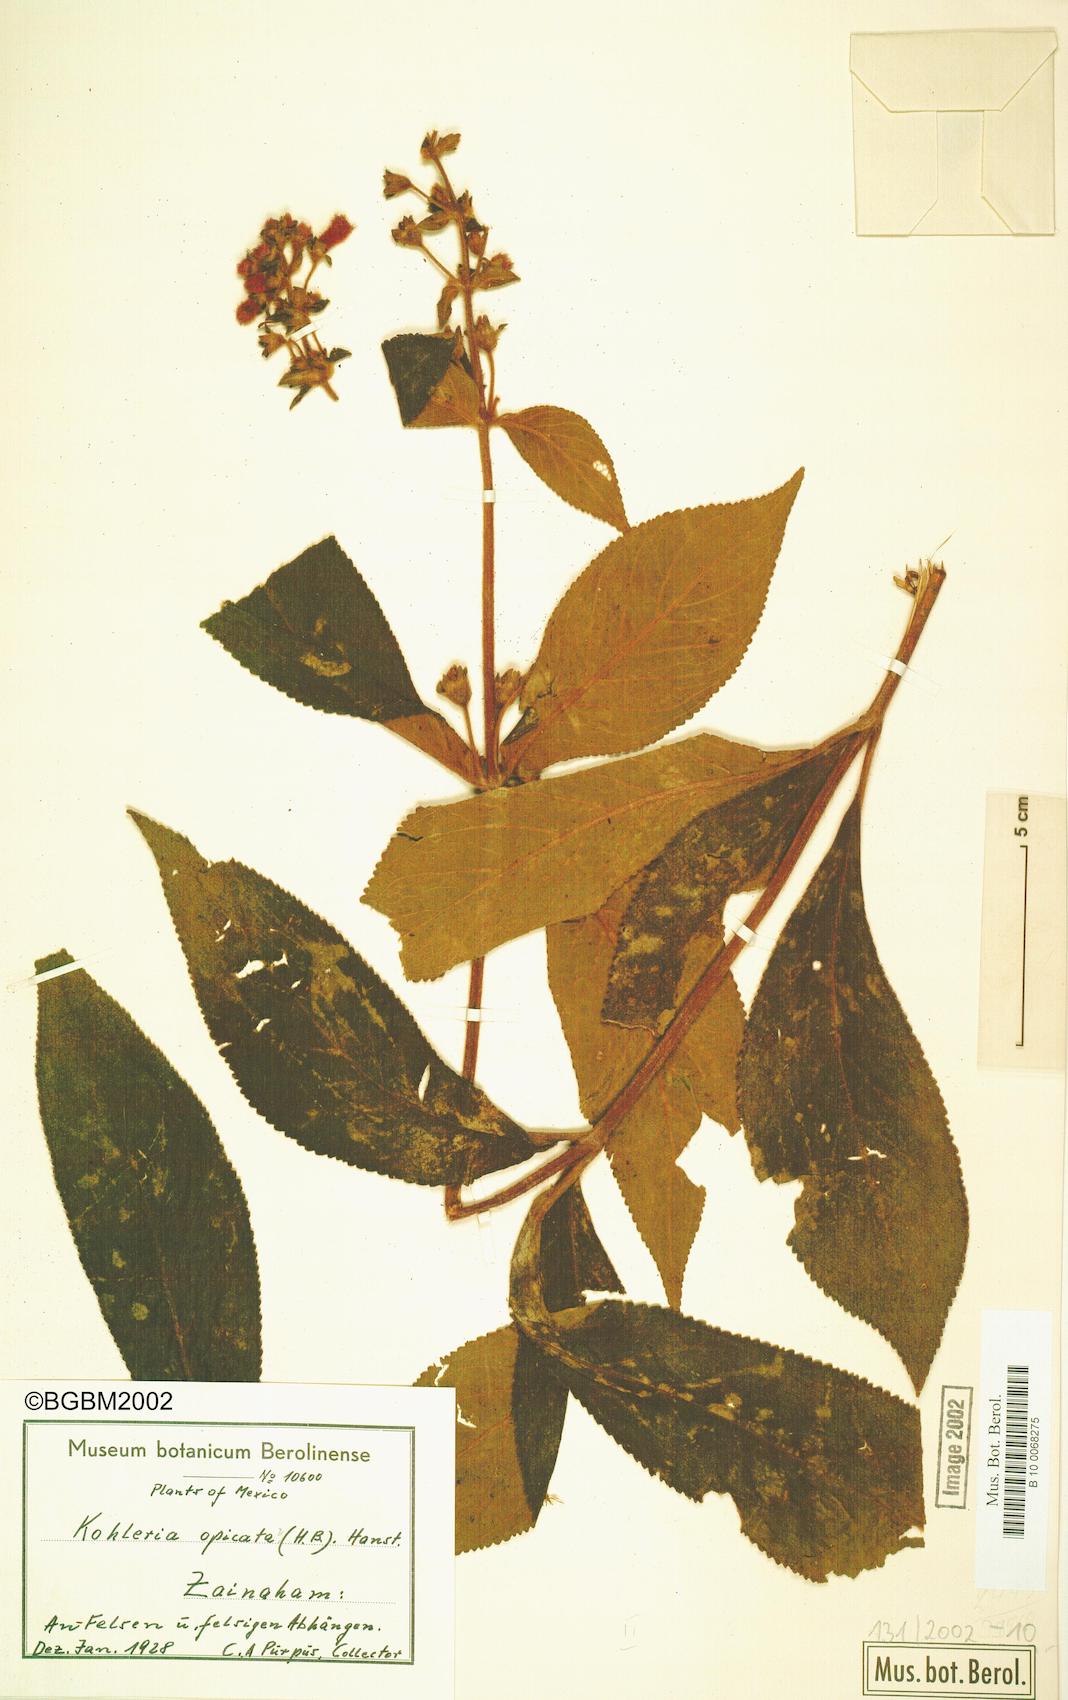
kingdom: Plantae
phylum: Tracheophyta
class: Magnoliopsida
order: Lamiales
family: Gesneriaceae
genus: Kohleria
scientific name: Kohleria spicata
